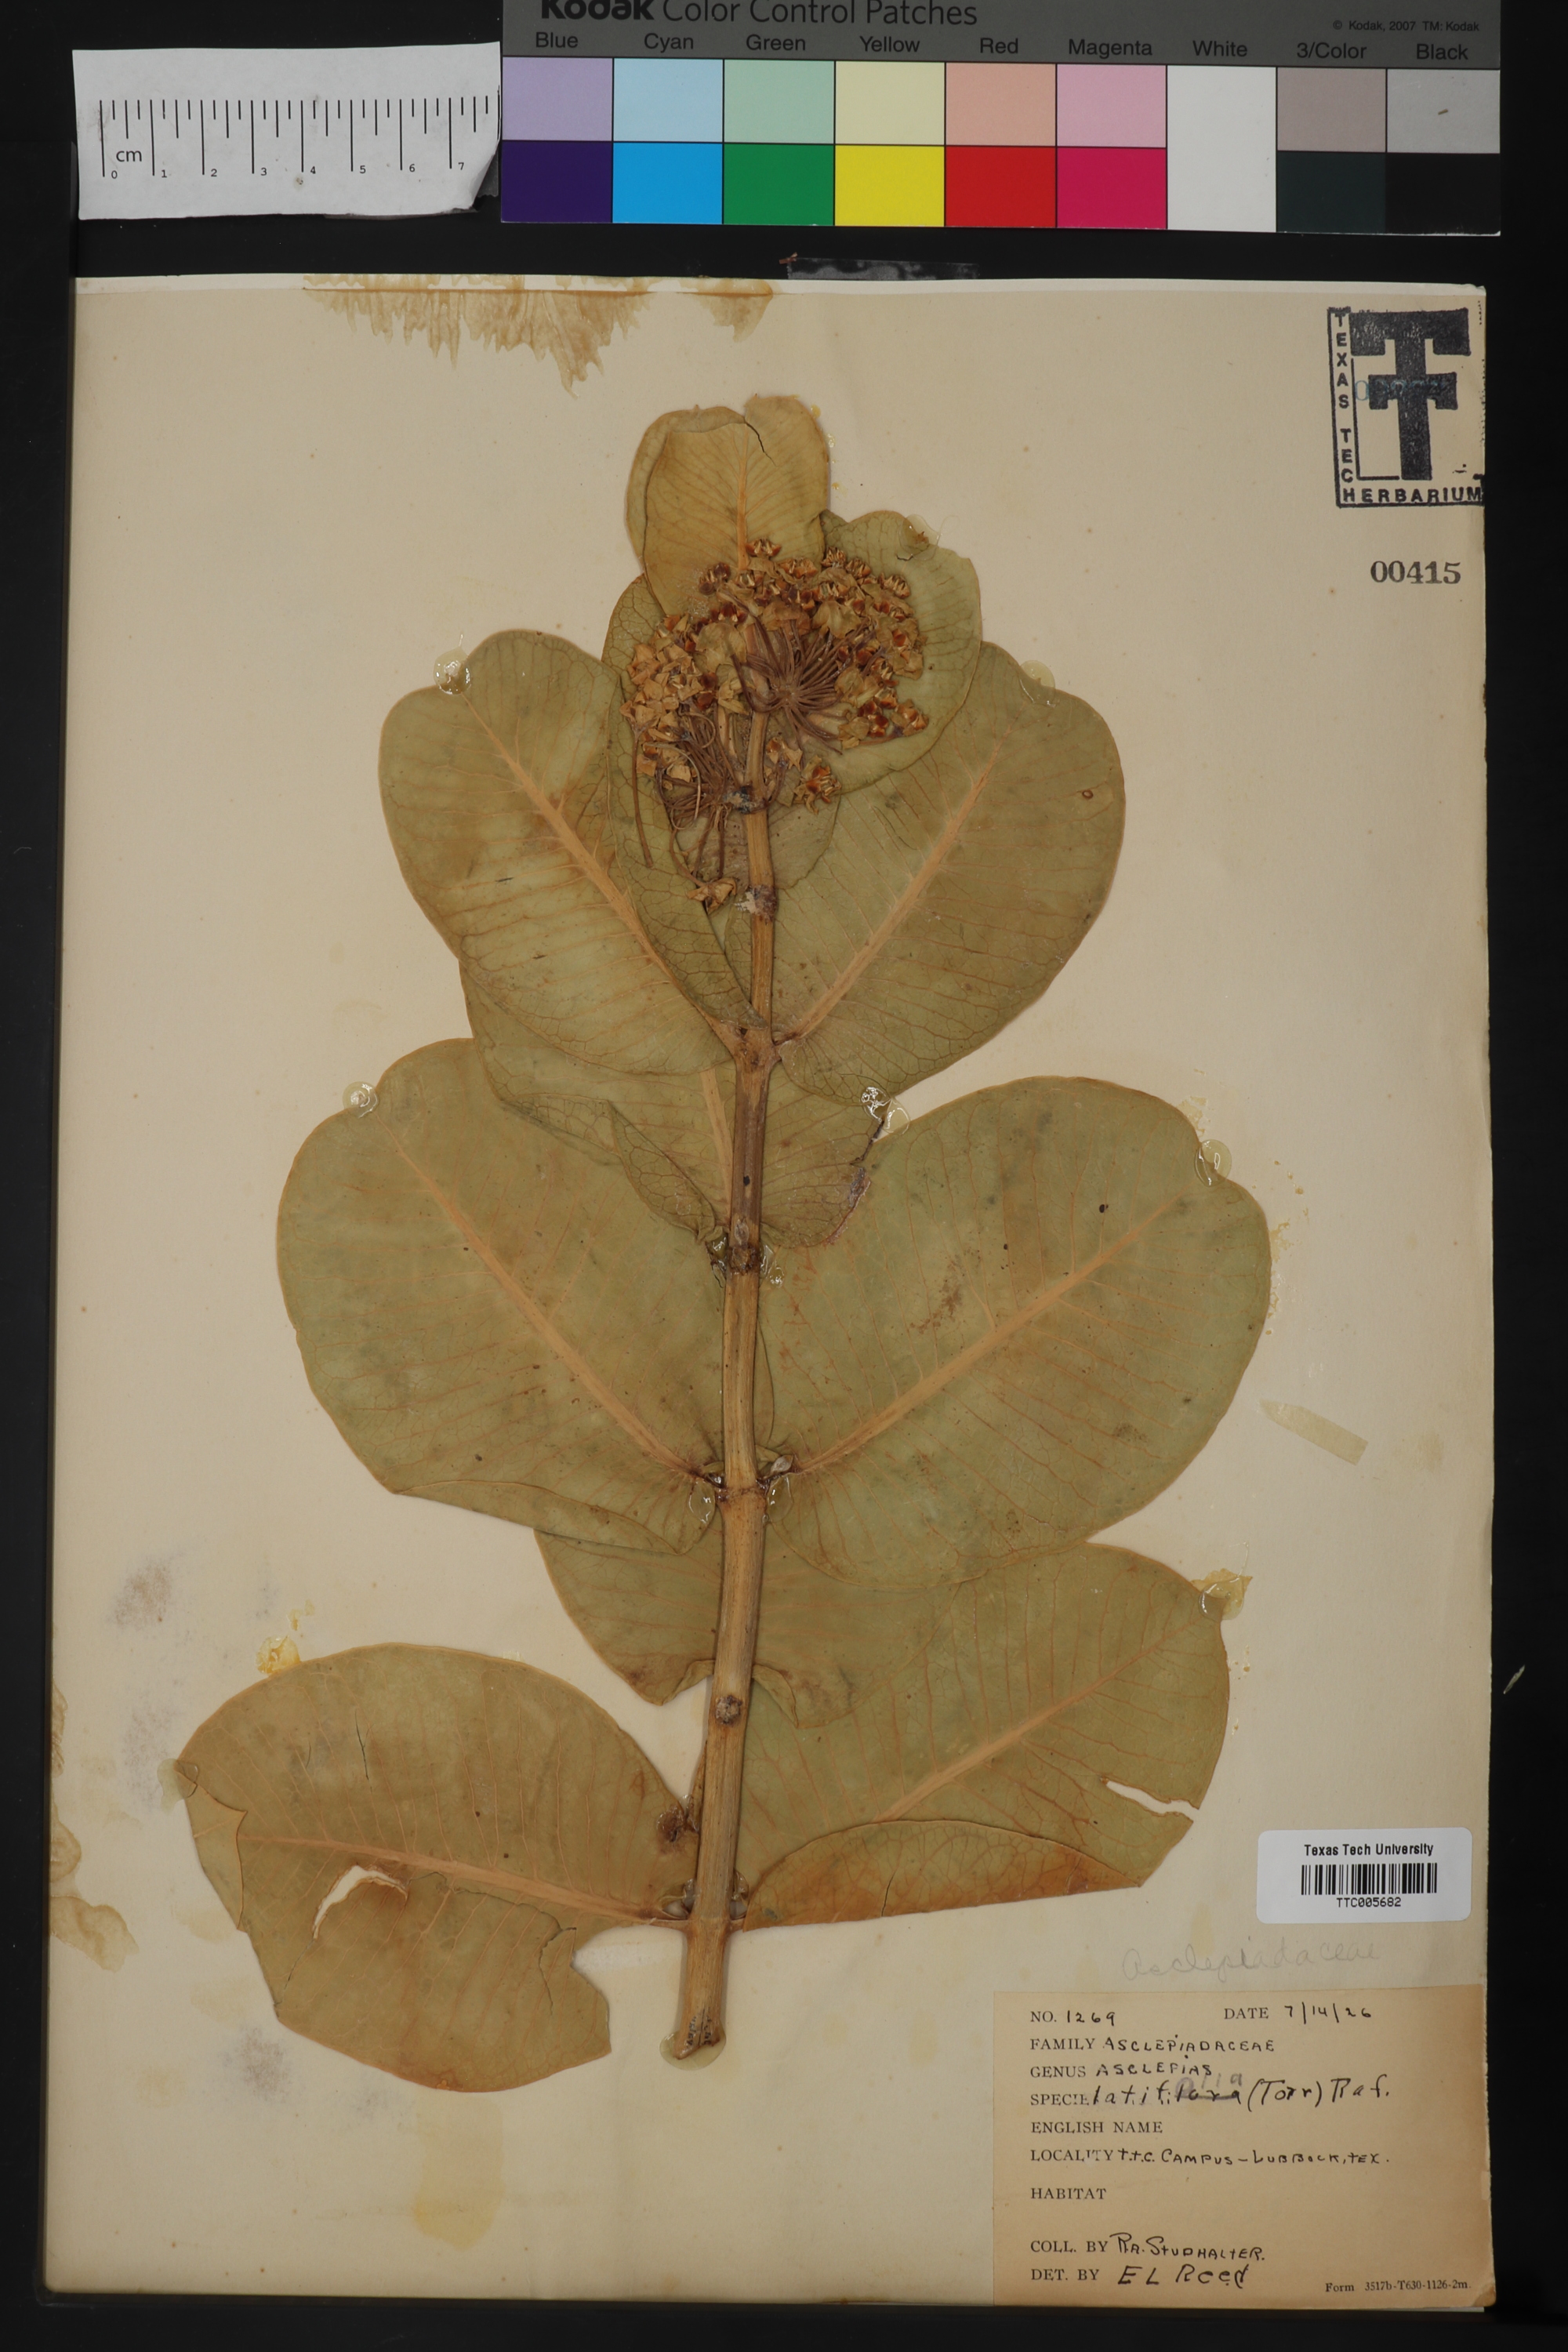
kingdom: Plantae
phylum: Tracheophyta
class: Magnoliopsida
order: Gentianales
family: Apocynaceae
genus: Asclepias
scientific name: Asclepias latifolia
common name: Broadleaf milkweed
